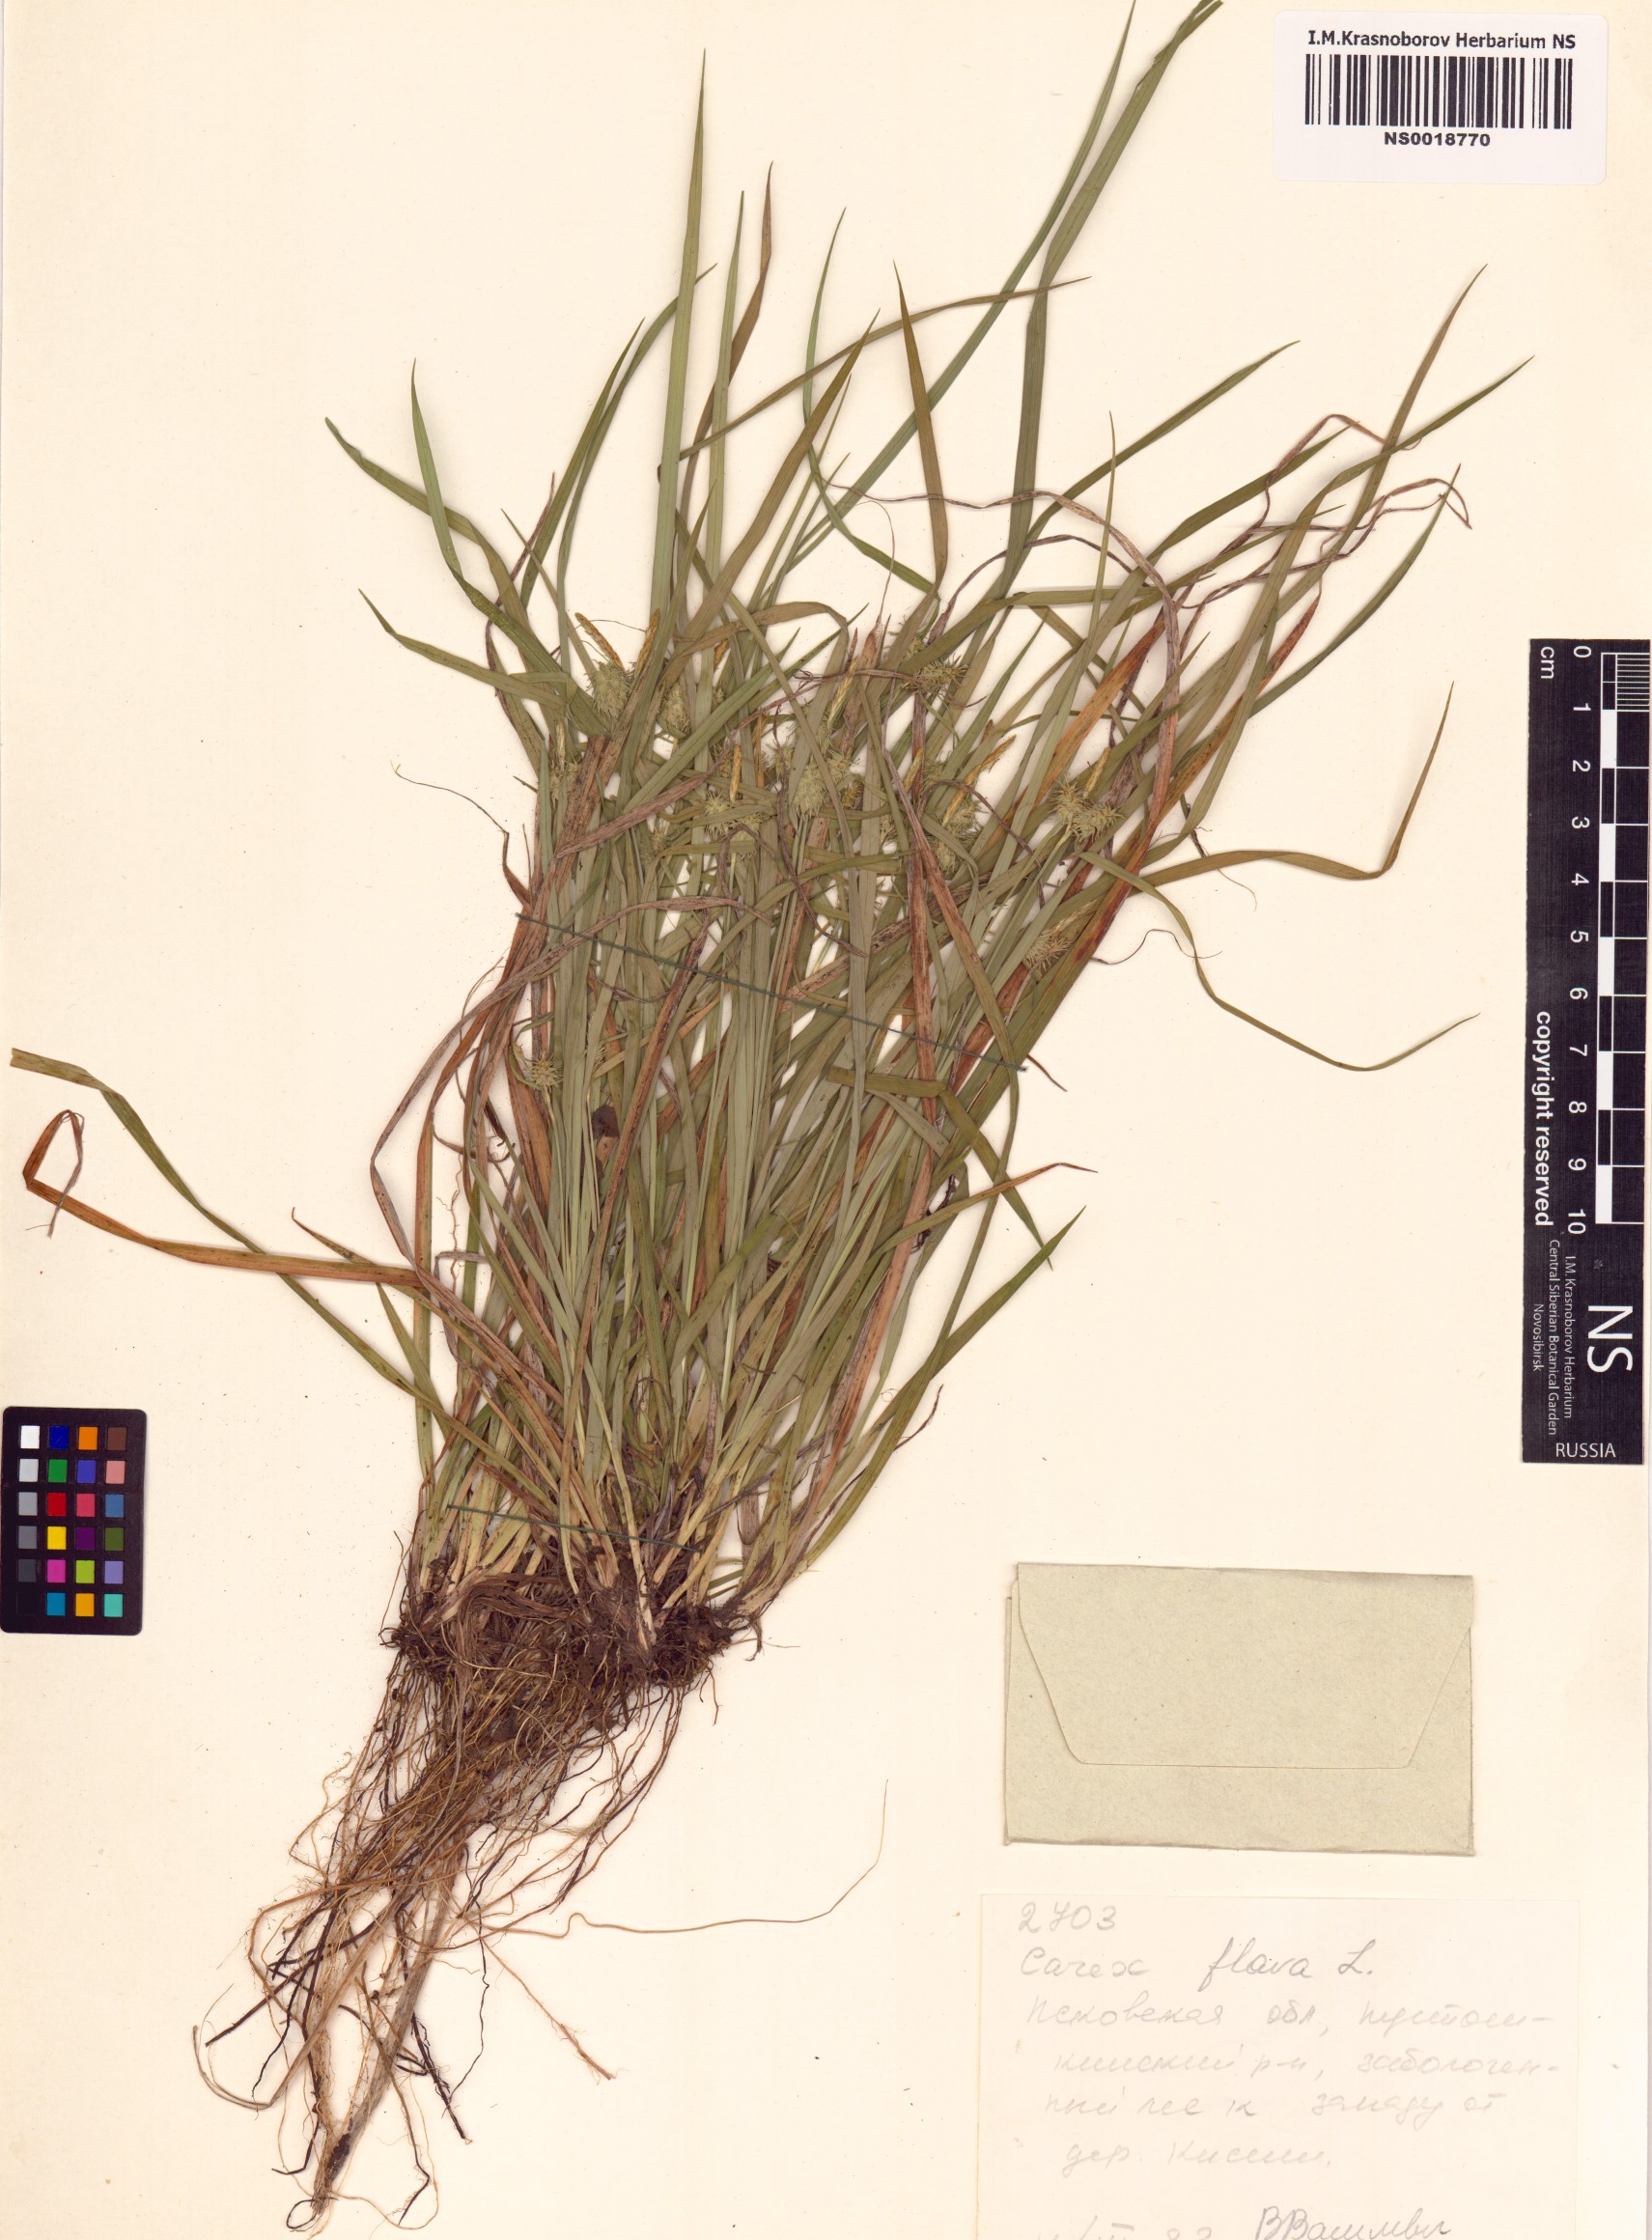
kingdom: Plantae
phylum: Tracheophyta
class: Liliopsida
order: Poales
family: Cyperaceae
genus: Carex
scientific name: Carex flava
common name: Large yellow-sedge
